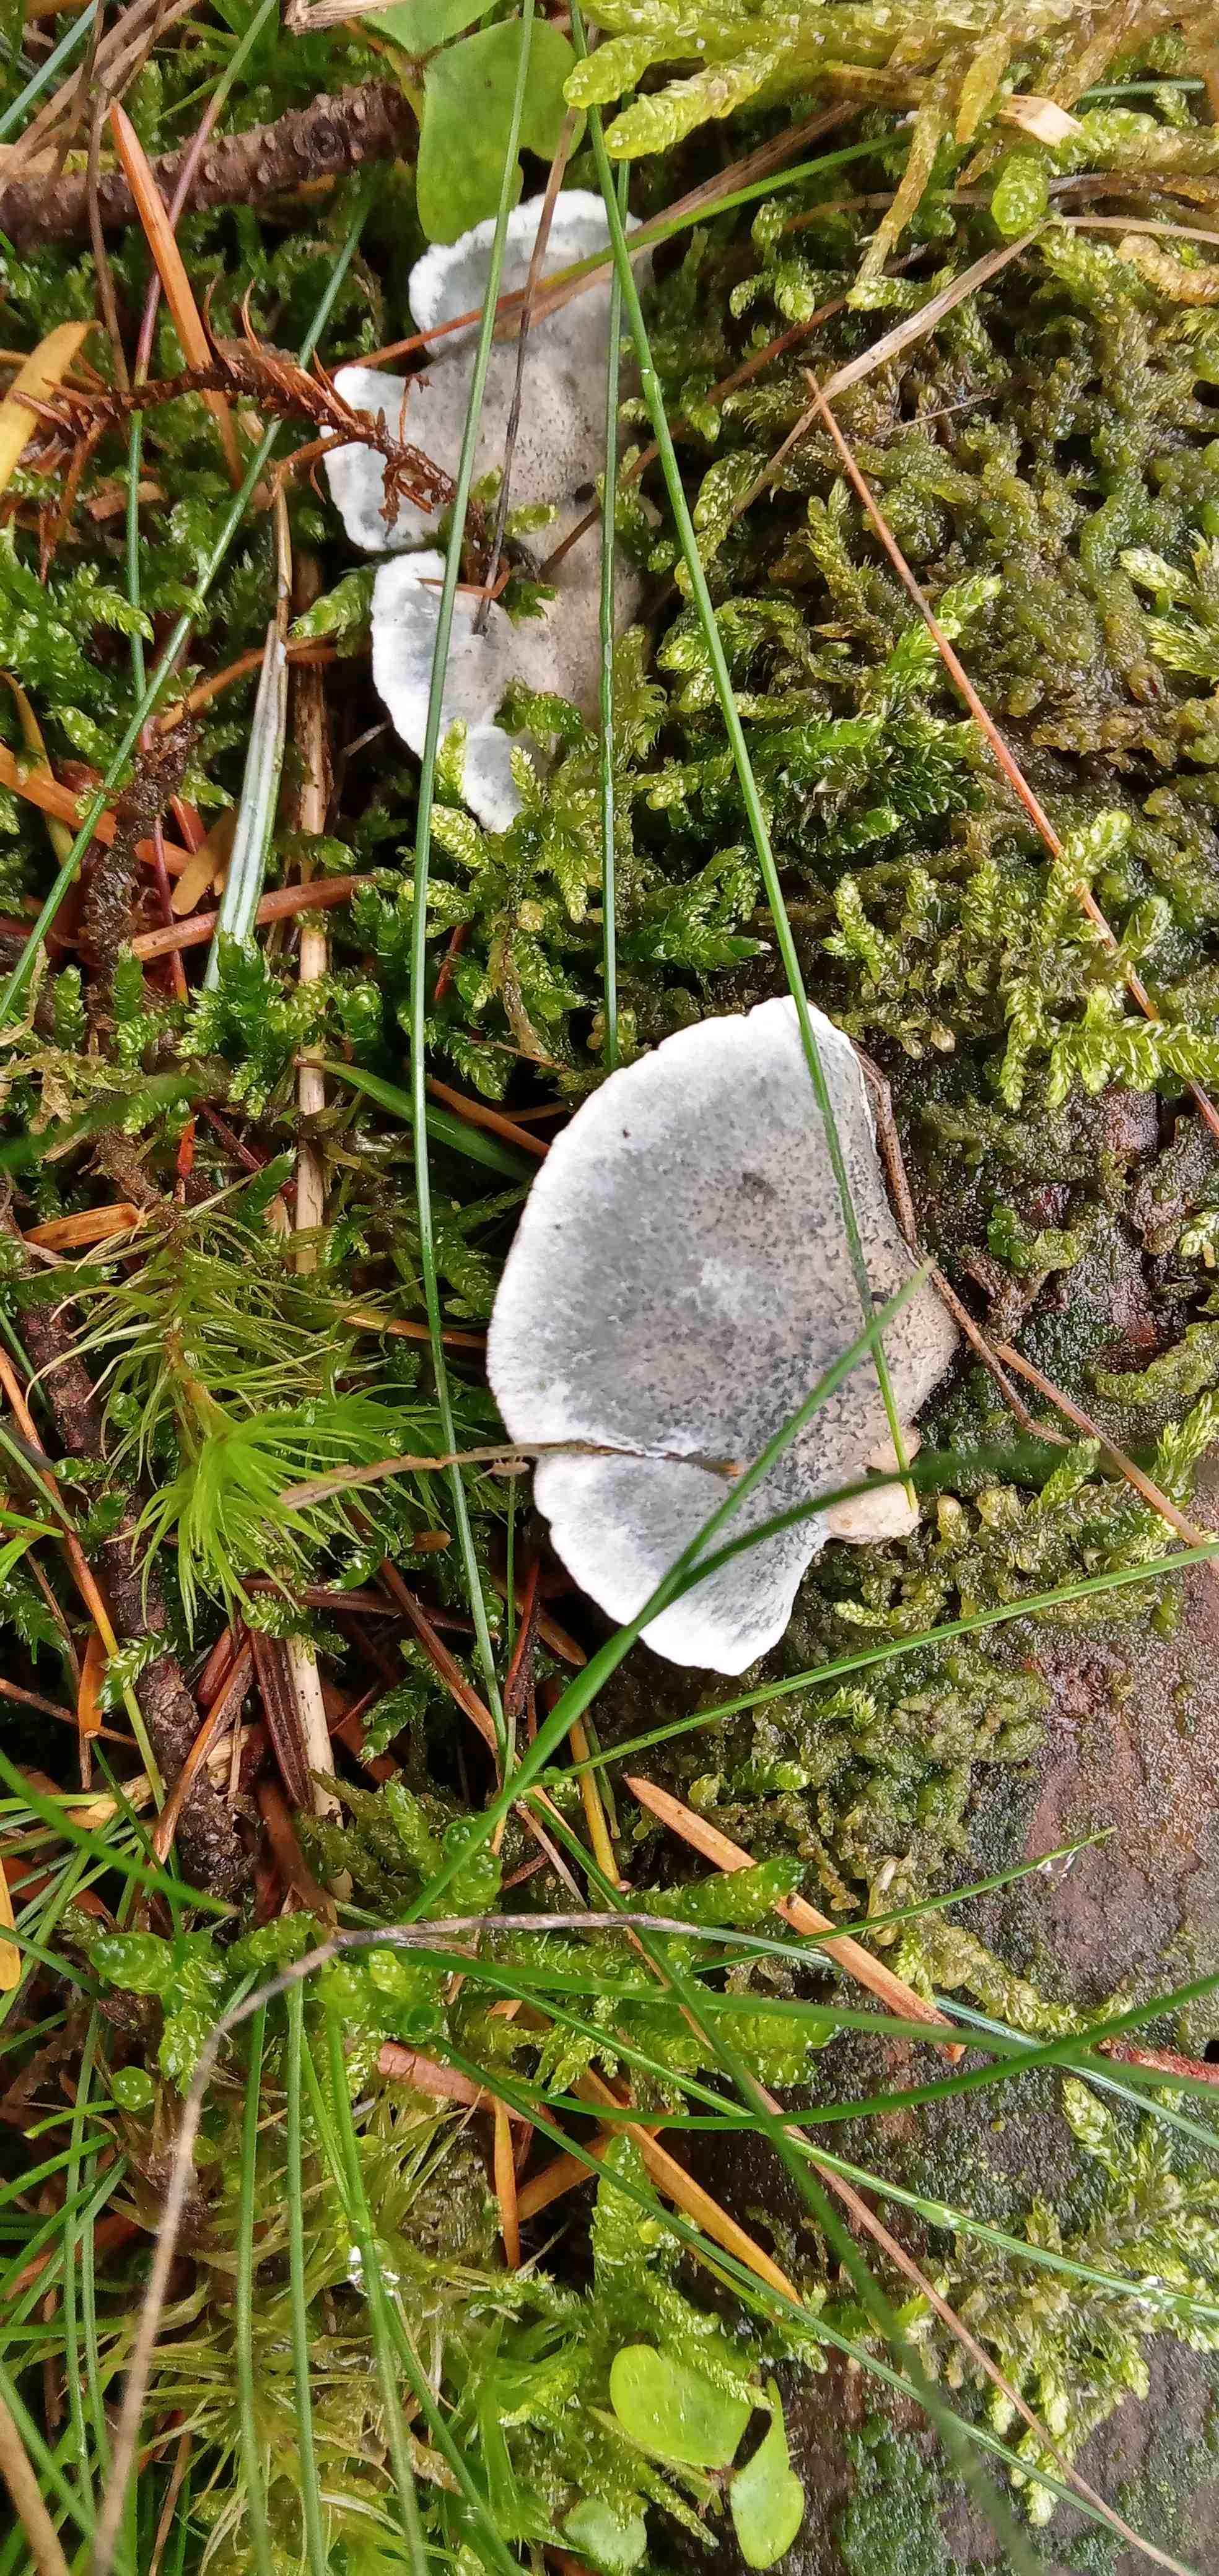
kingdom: Fungi
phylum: Basidiomycota
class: Agaricomycetes
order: Polyporales
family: Polyporaceae
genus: Cyanosporus
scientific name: Cyanosporus caesius
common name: blålig kødporesvamp
